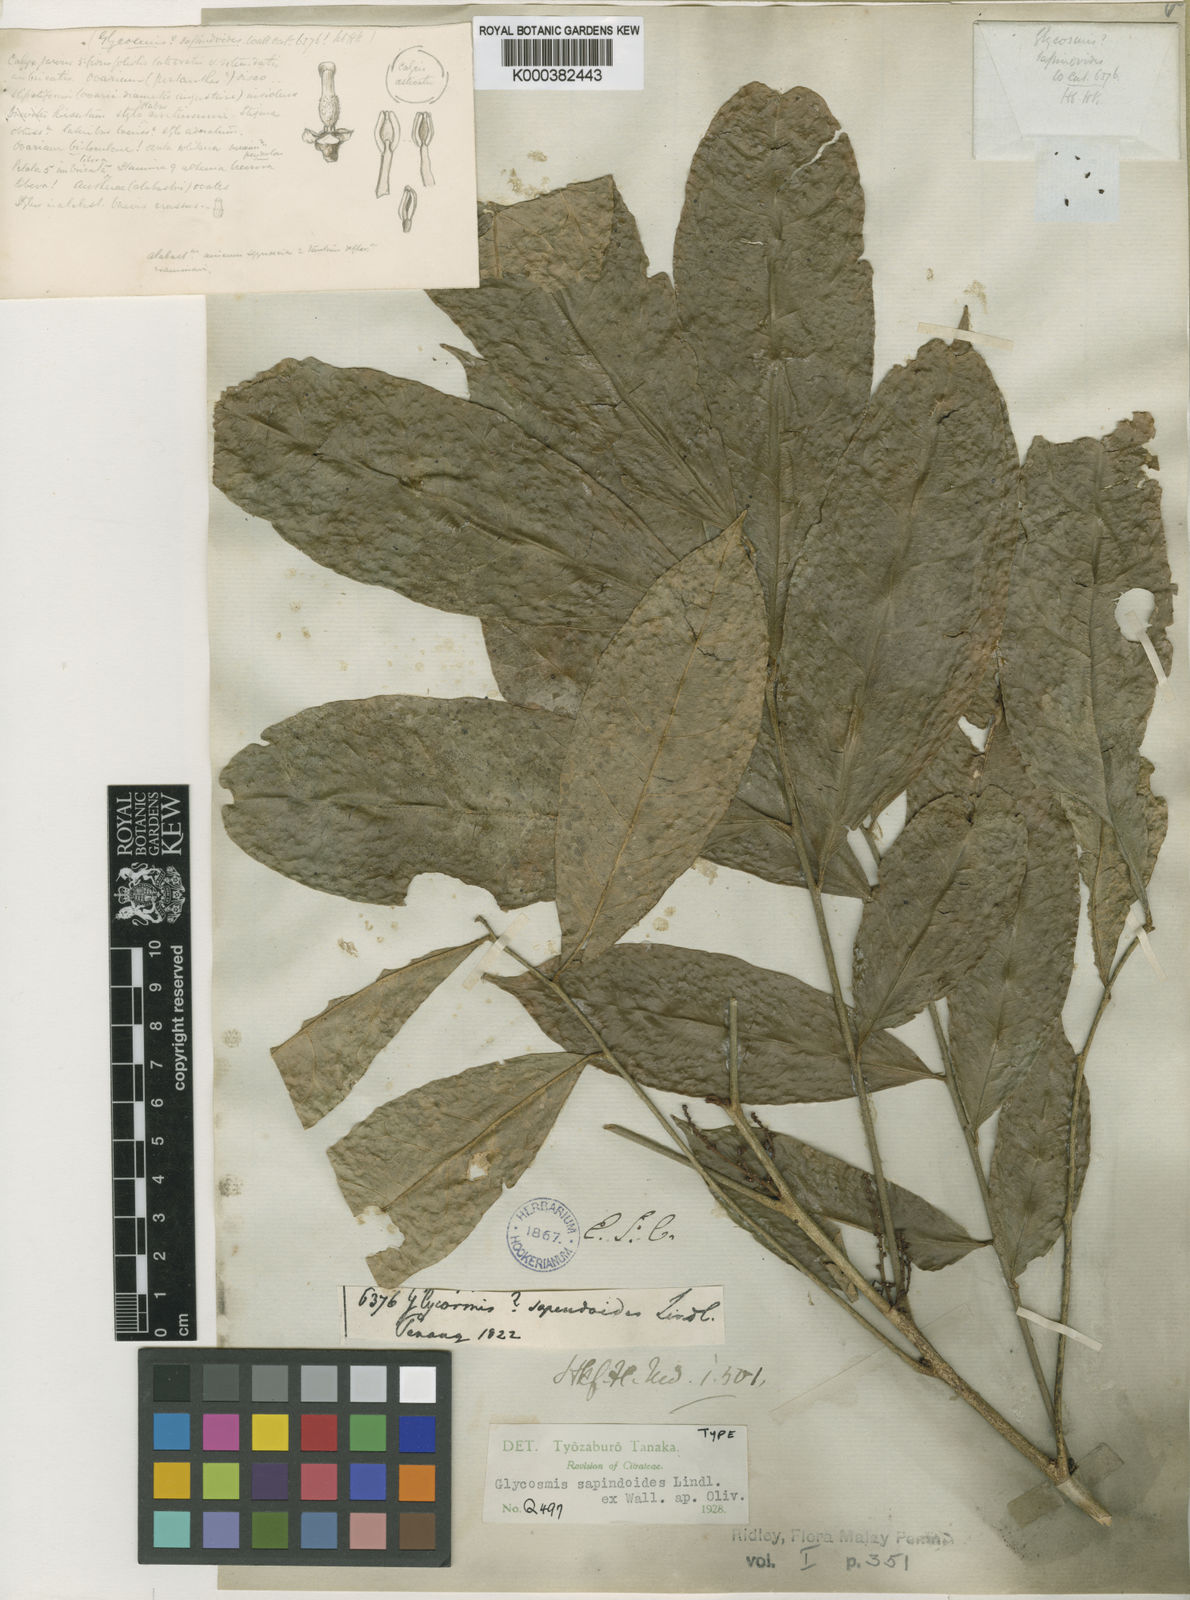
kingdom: Plantae
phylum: Tracheophyta
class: Magnoliopsida
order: Sapindales
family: Rutaceae
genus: Glycosmis
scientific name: Glycosmis
